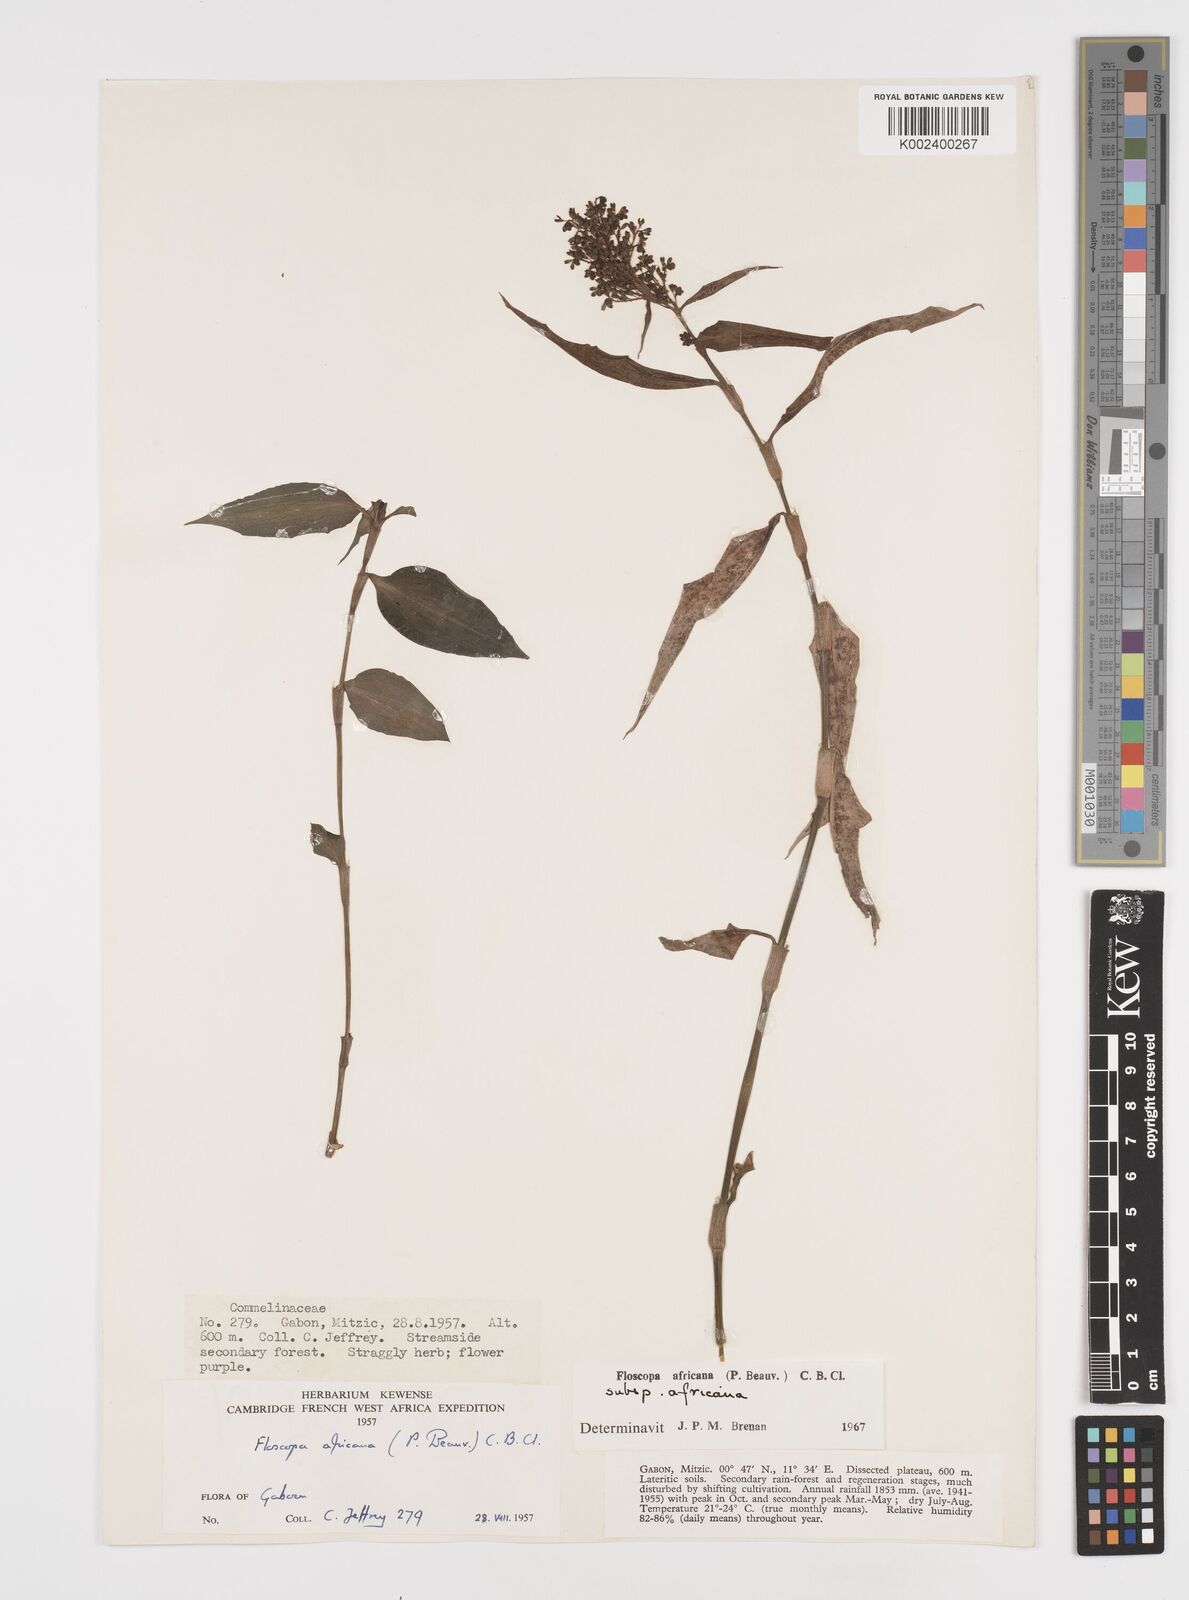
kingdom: Plantae
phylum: Tracheophyta
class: Liliopsida
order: Commelinales
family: Commelinaceae
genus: Floscopa
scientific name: Floscopa africana
